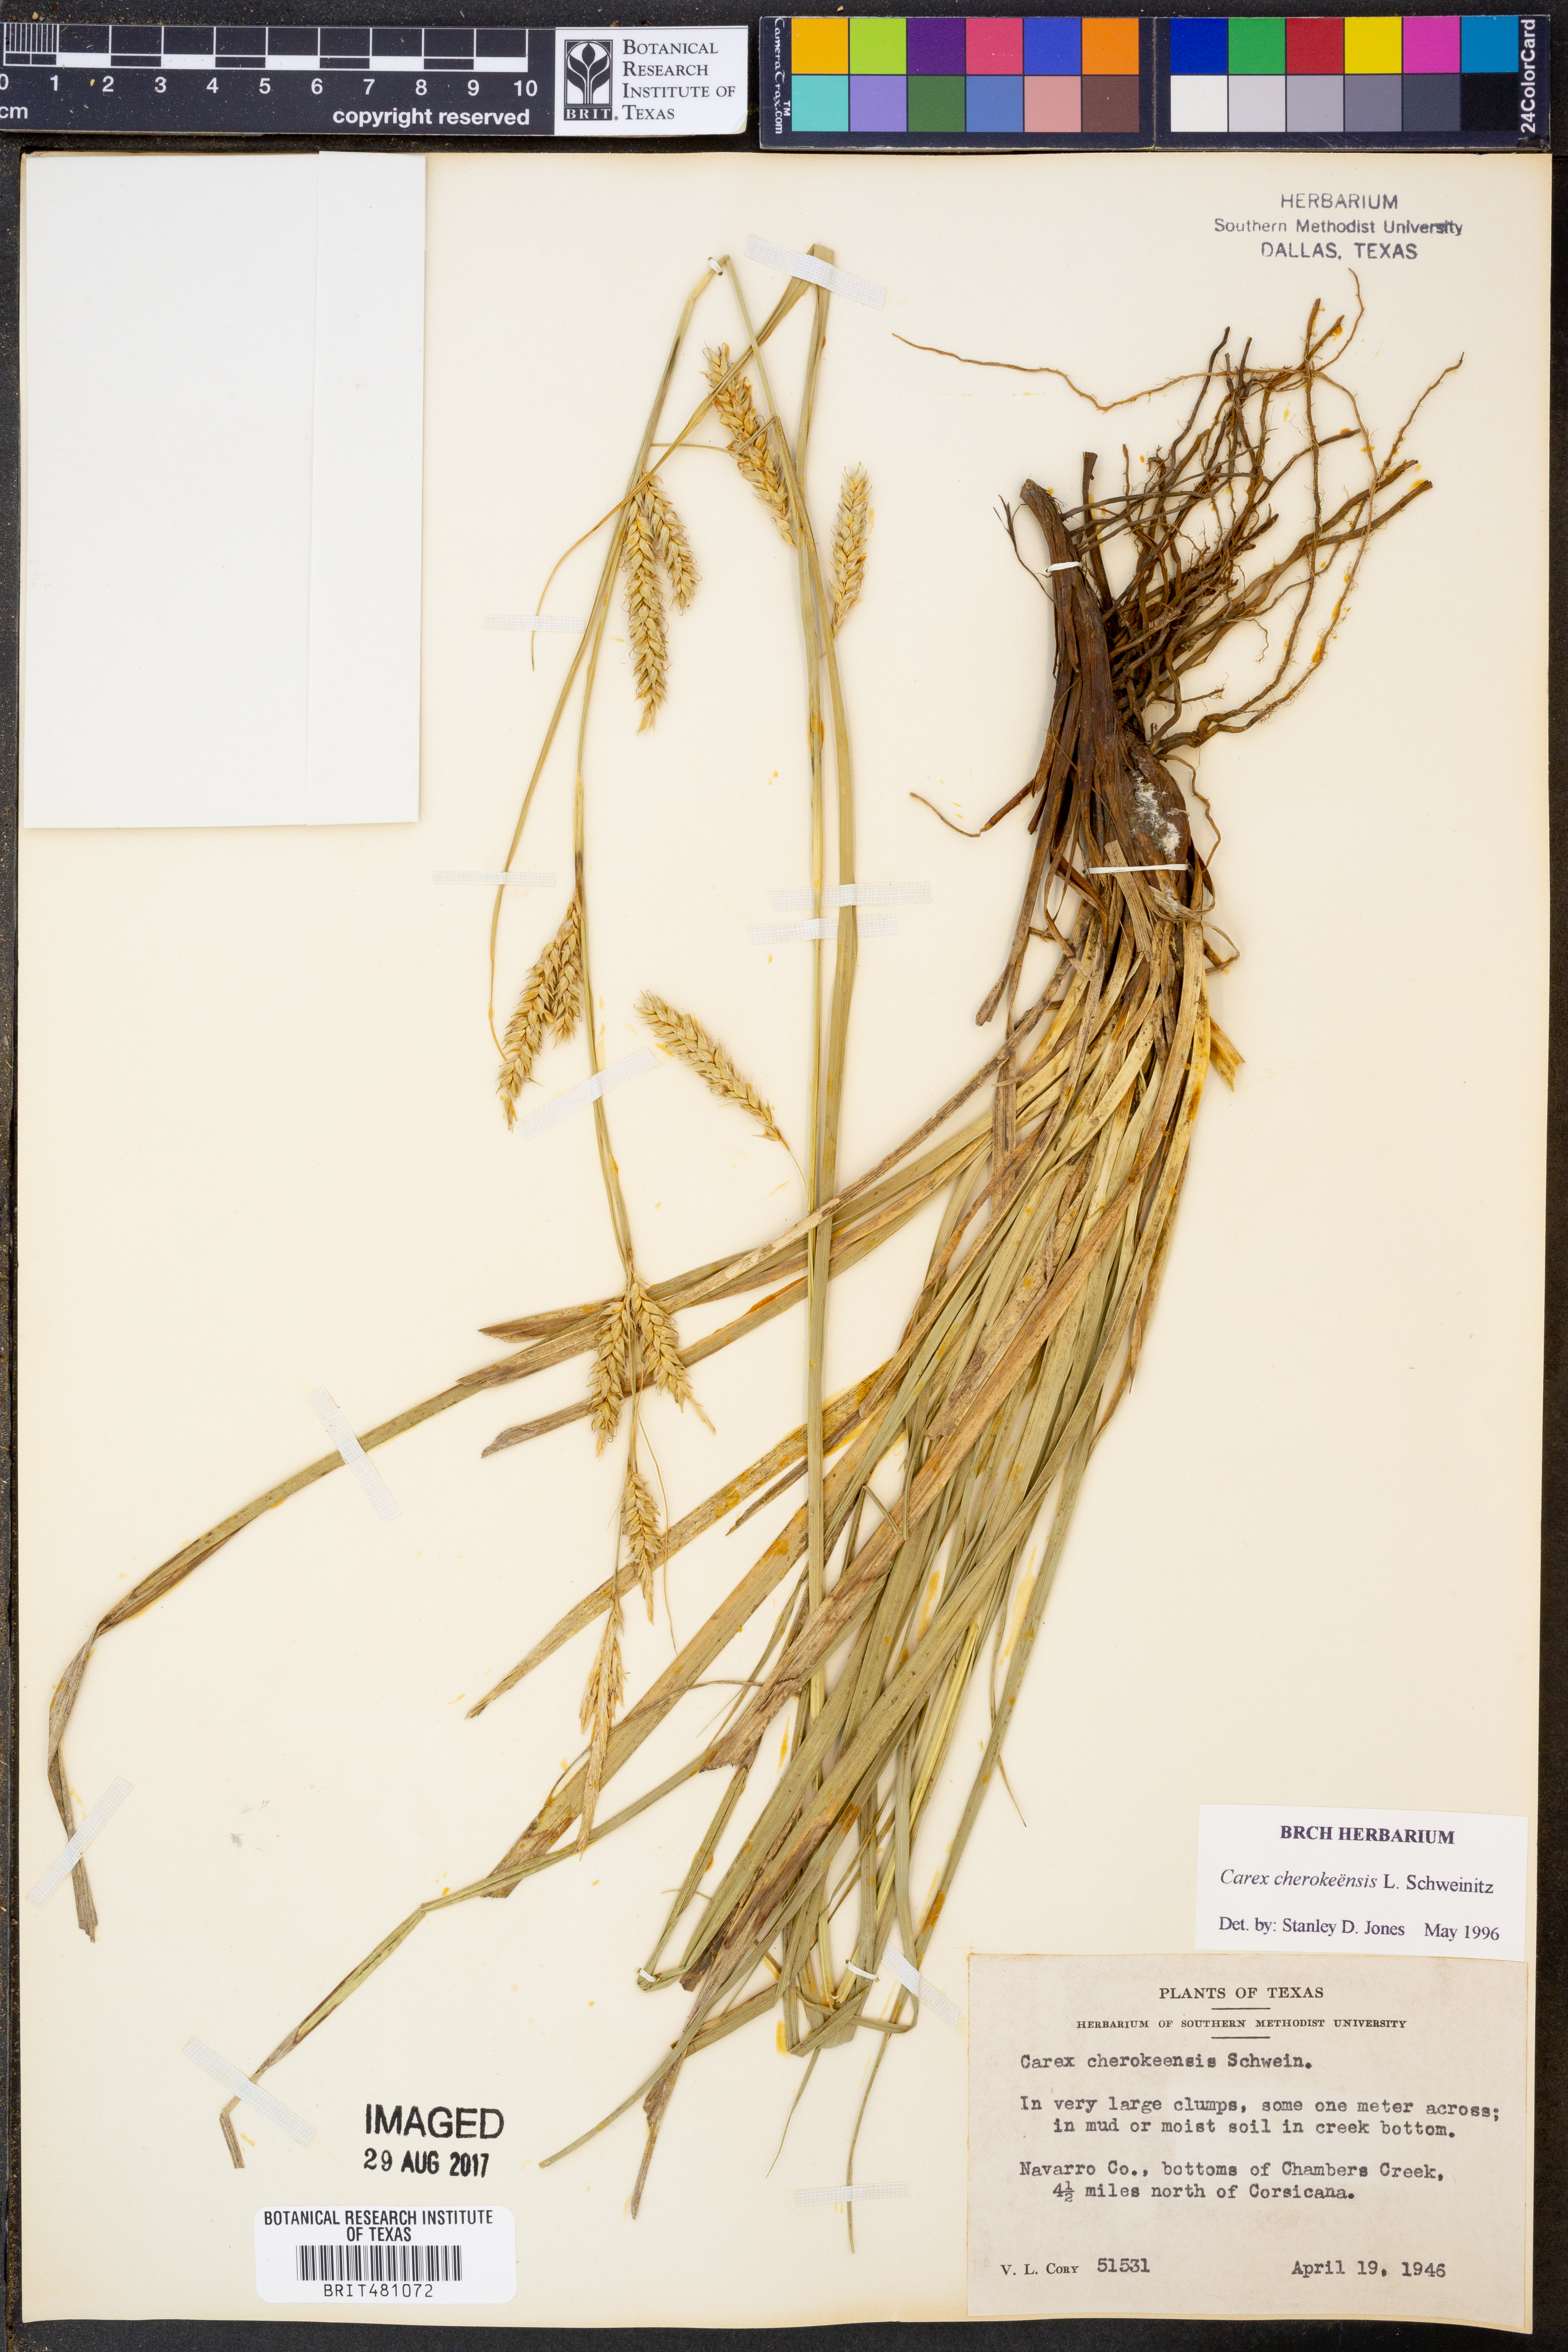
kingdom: Plantae
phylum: Tracheophyta
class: Liliopsida
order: Poales
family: Cyperaceae
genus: Carex
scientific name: Carex cherokeensis
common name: Cherokee sedge
